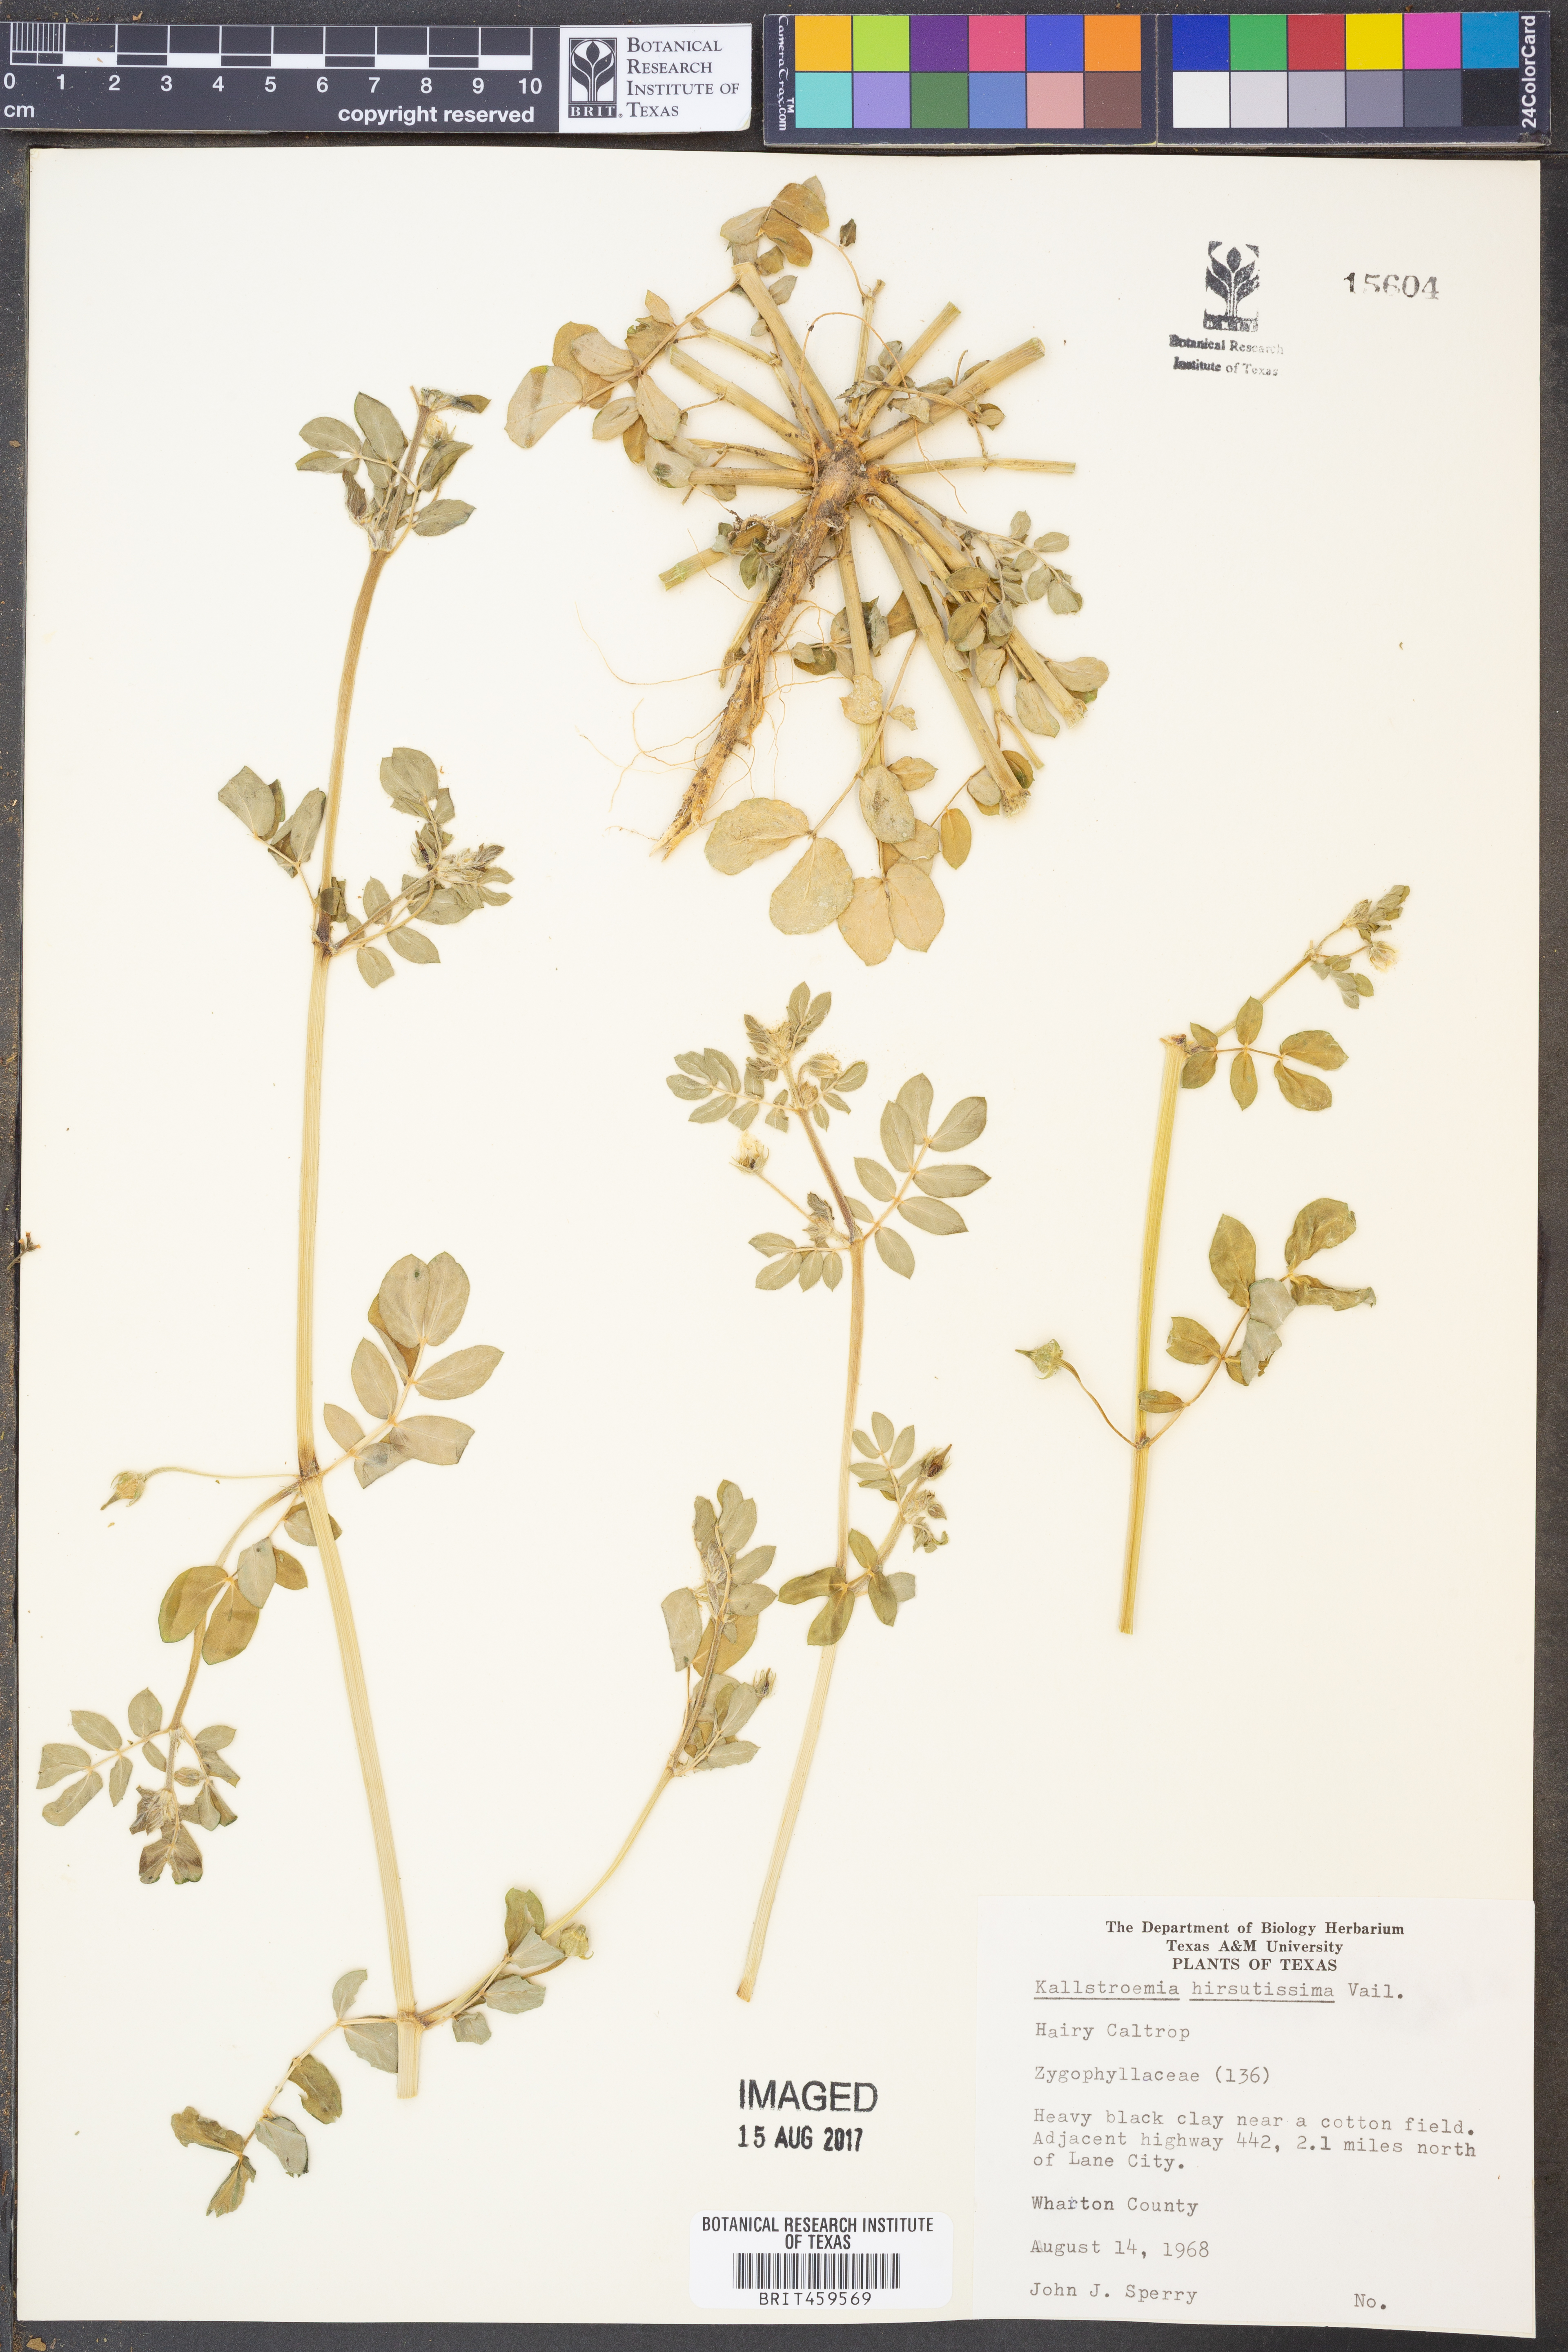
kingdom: Plantae
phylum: Tracheophyta
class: Magnoliopsida
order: Zygophyllales
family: Zygophyllaceae
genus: Kallstroemia
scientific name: Kallstroemia hirsutissima
